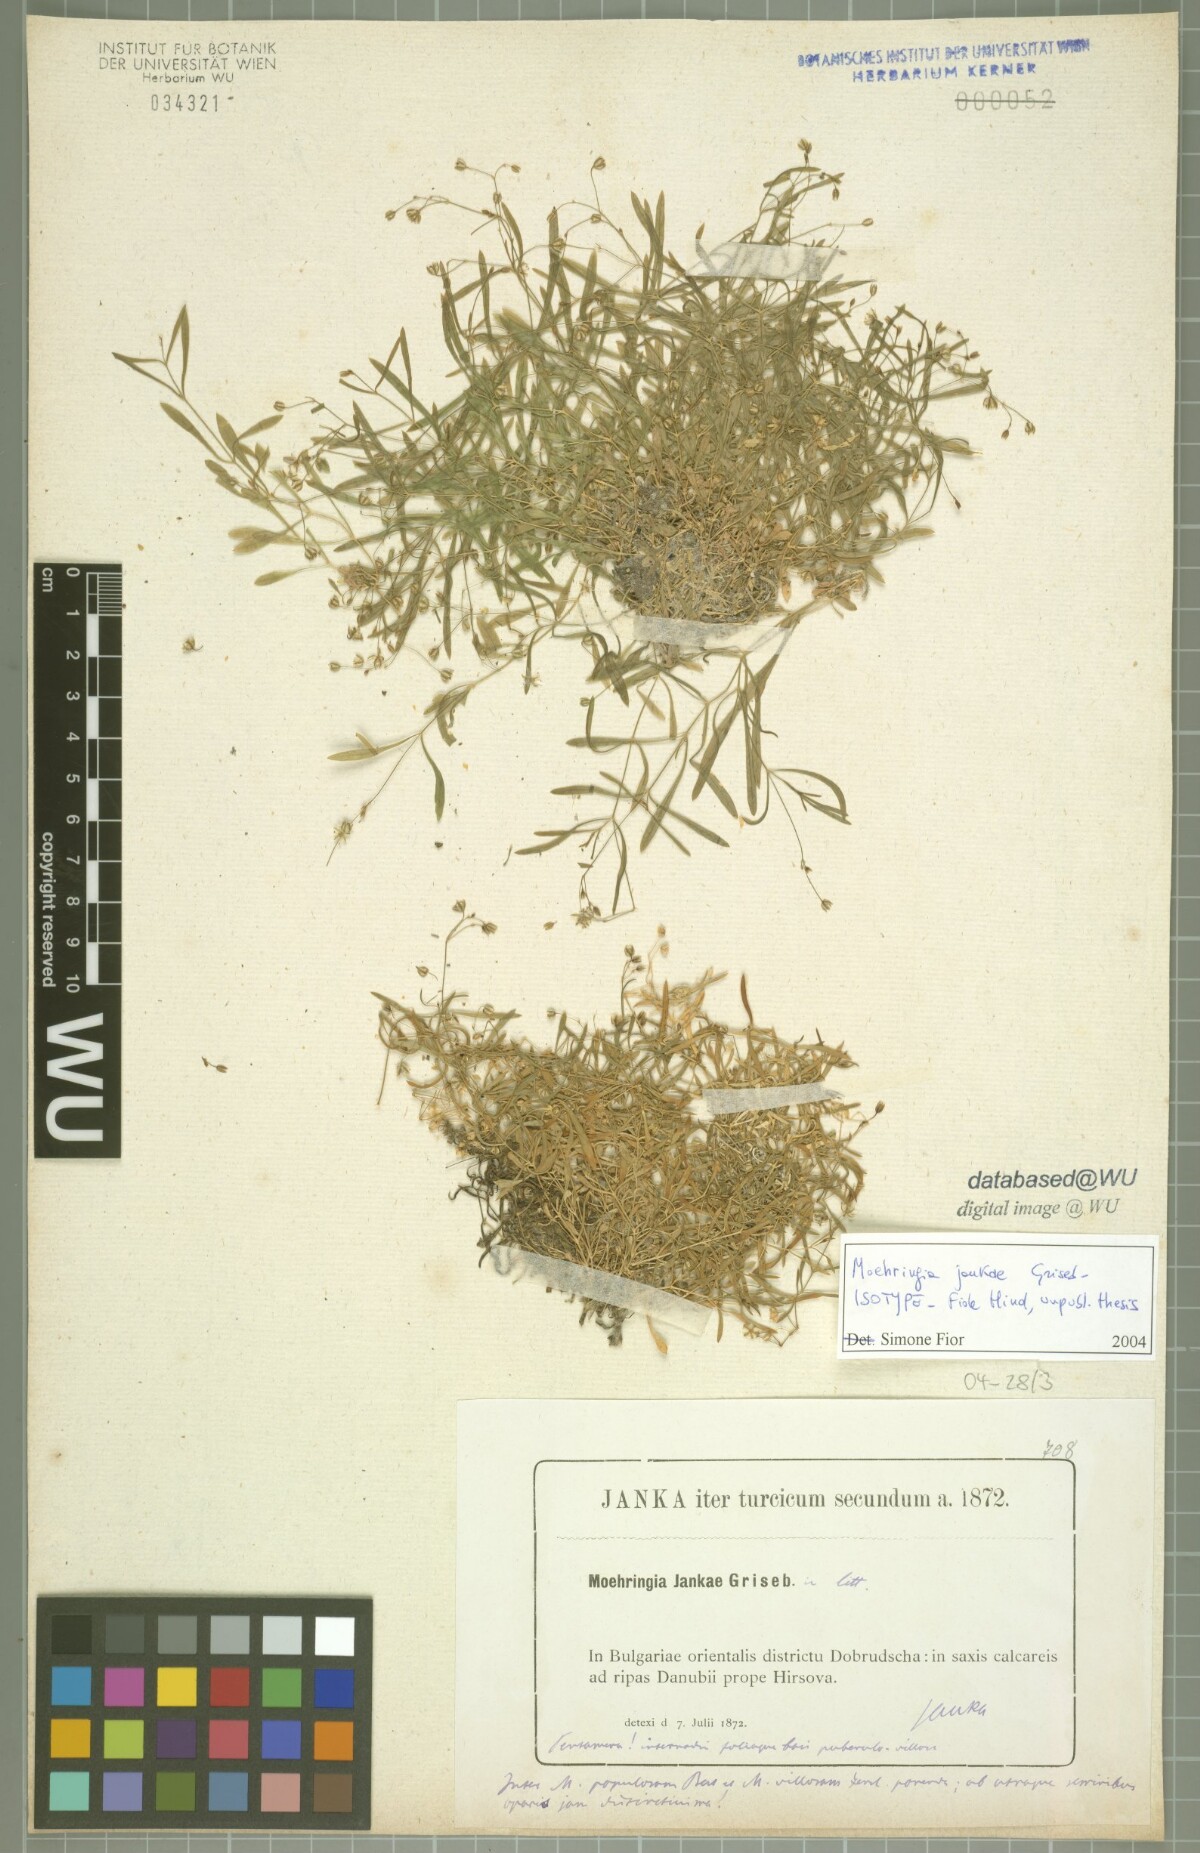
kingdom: Plantae
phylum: Tracheophyta
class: Magnoliopsida
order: Caryophyllales
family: Caryophyllaceae
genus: Moehringia
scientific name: Moehringia jankae
